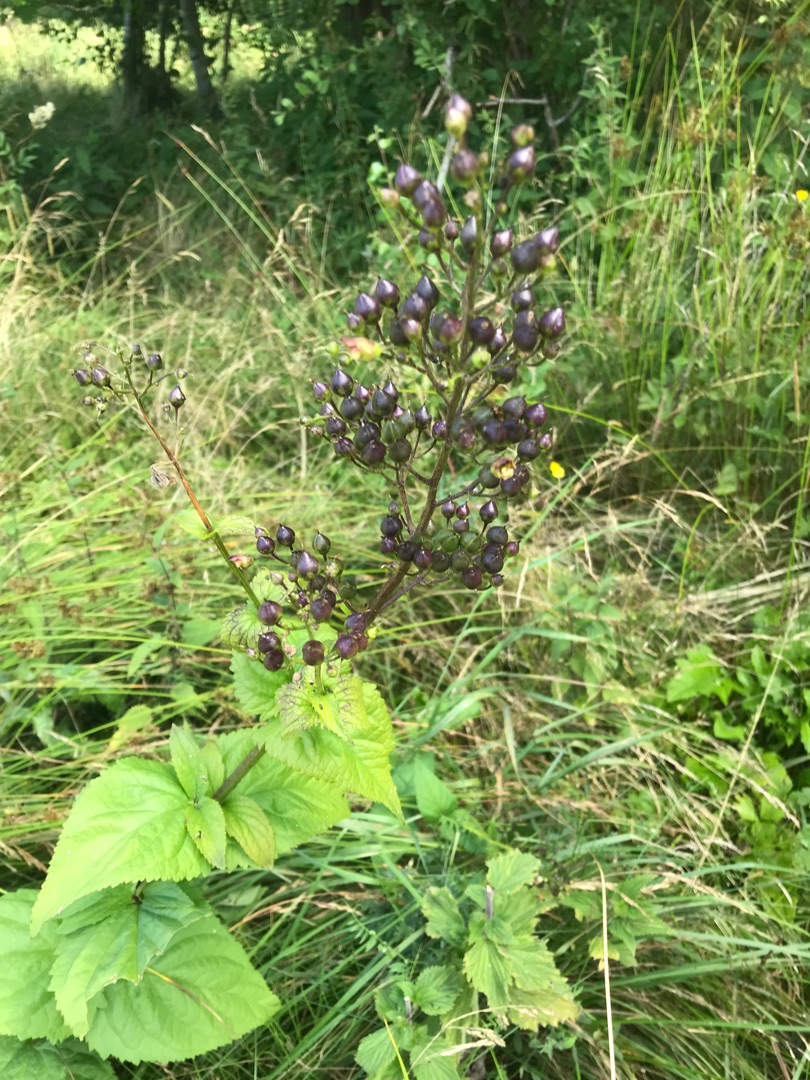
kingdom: Plantae
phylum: Tracheophyta
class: Magnoliopsida
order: Lamiales
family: Scrophulariaceae
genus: Scrophularia
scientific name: Scrophularia nodosa
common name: Knoldet brunrod
